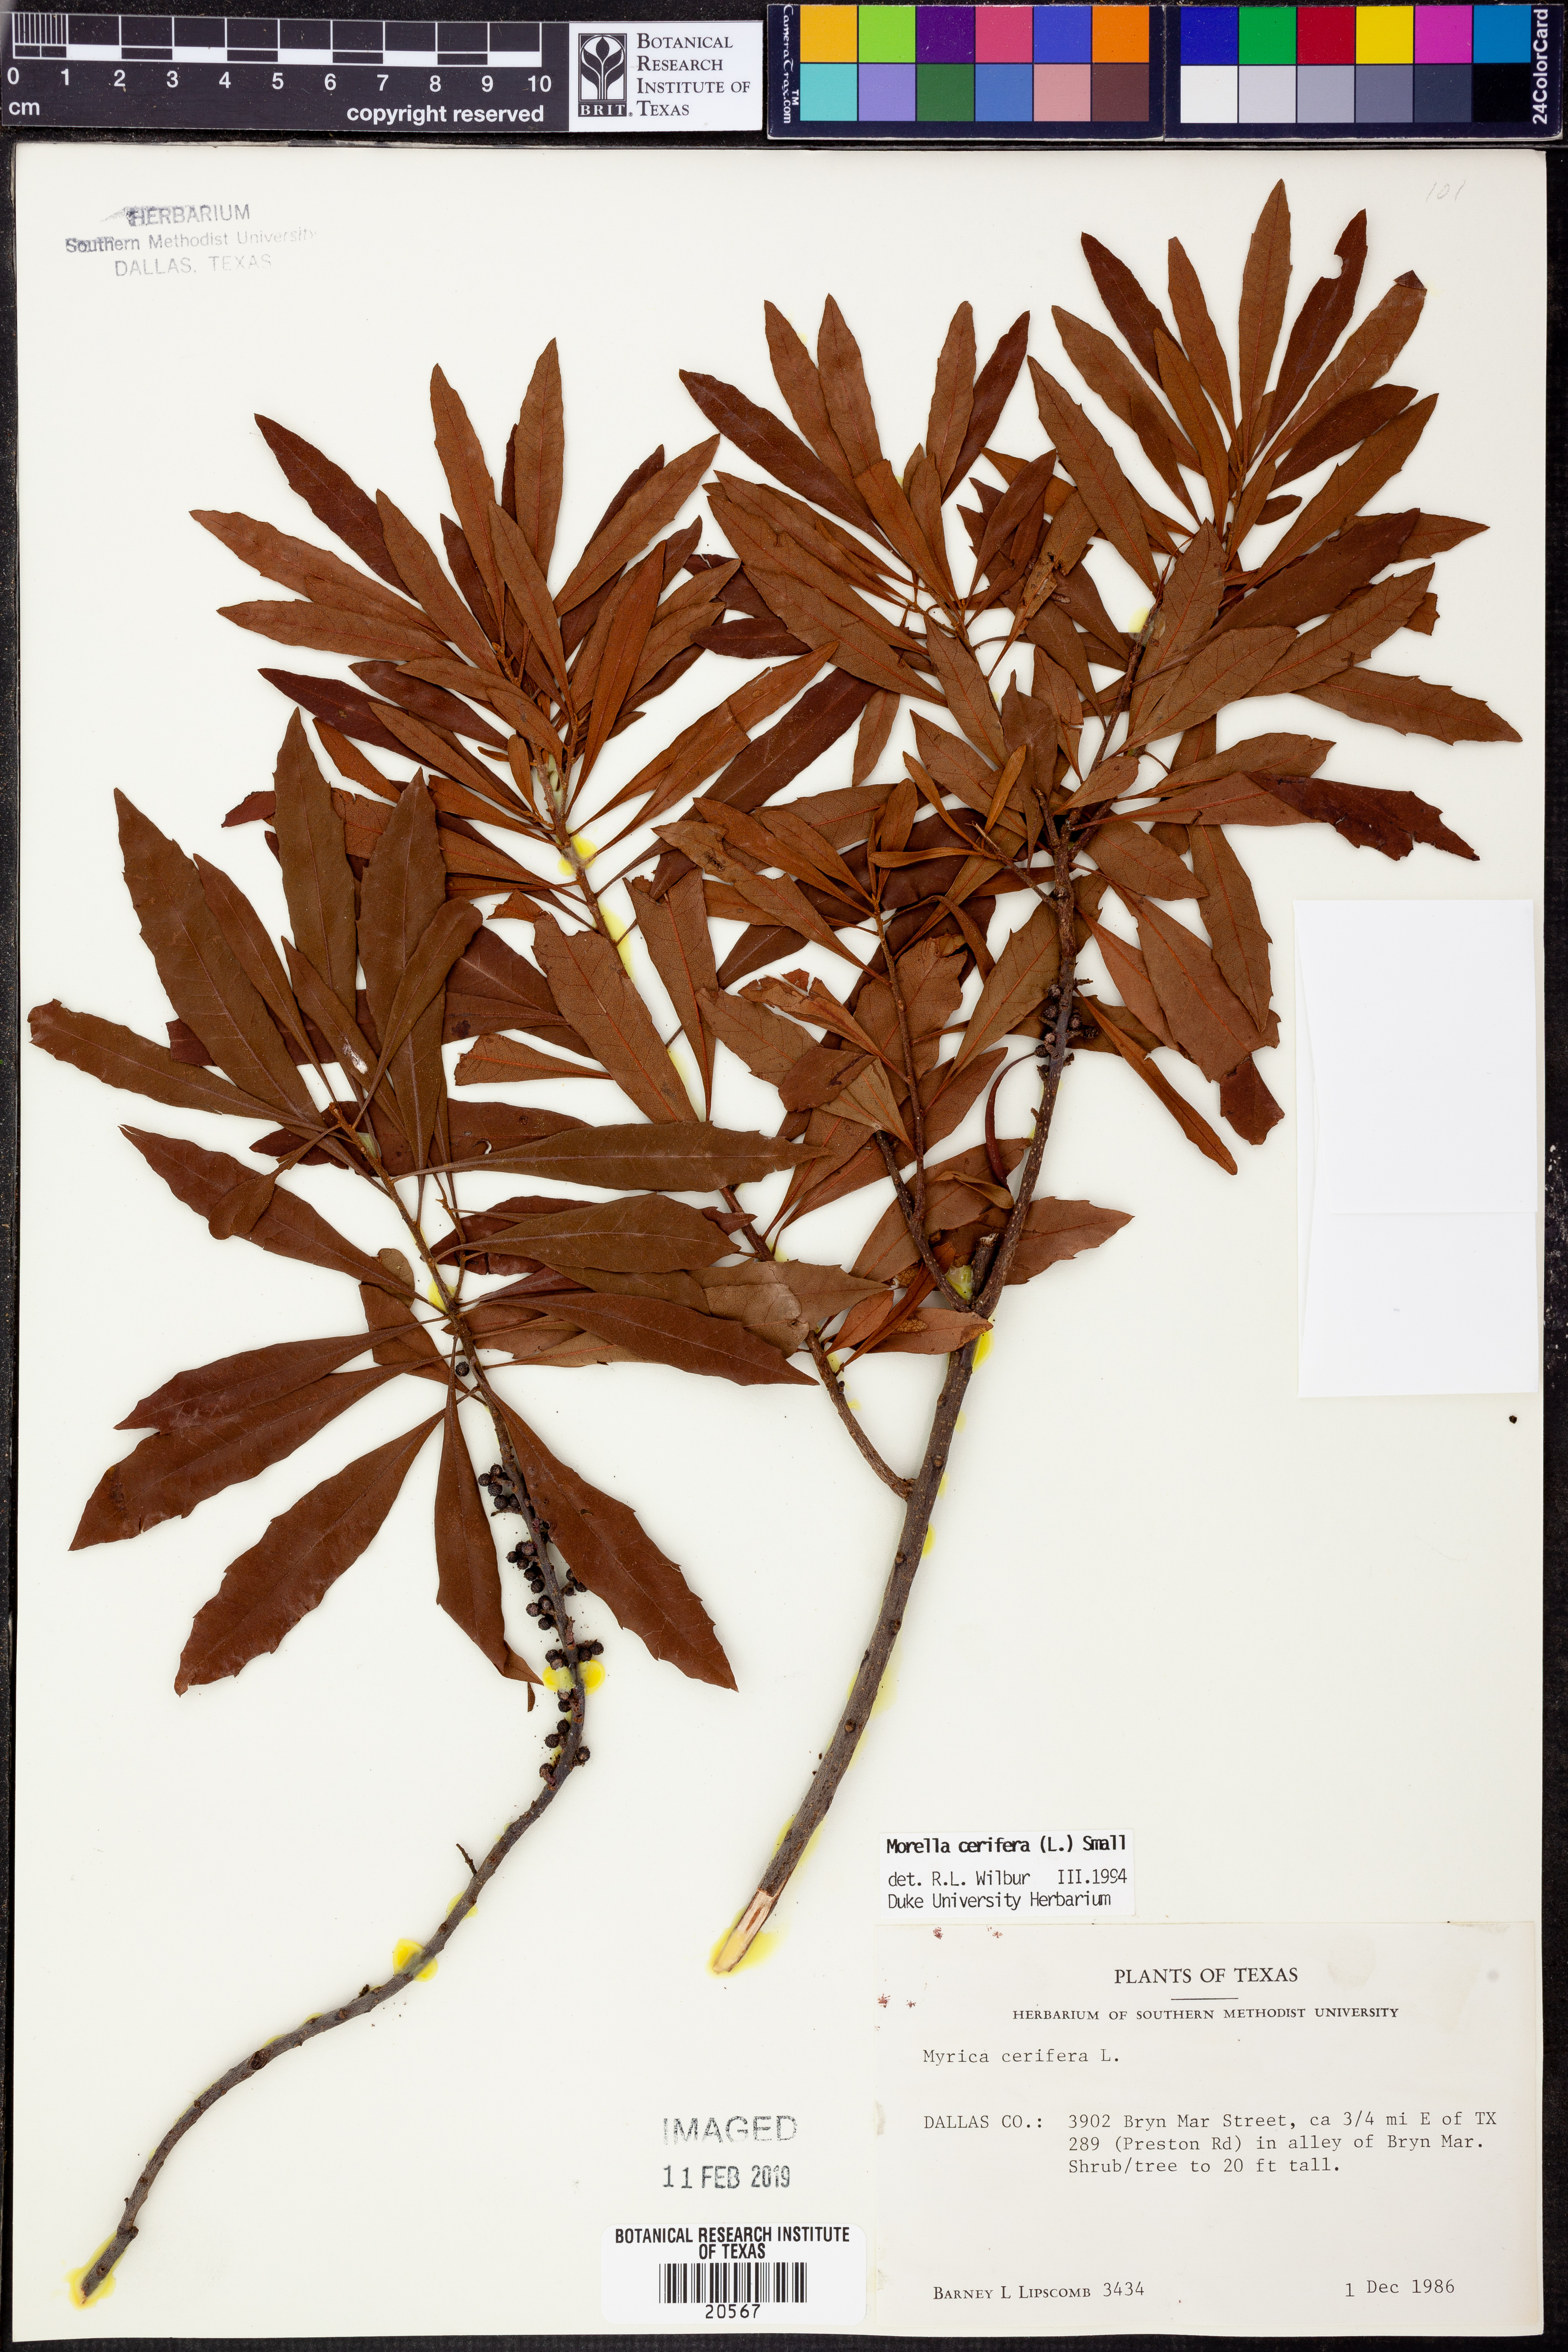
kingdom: Plantae
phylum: Tracheophyta
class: Magnoliopsida
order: Fagales
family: Myricaceae
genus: Morella
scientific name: Morella cerifera
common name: Wax myrtle
